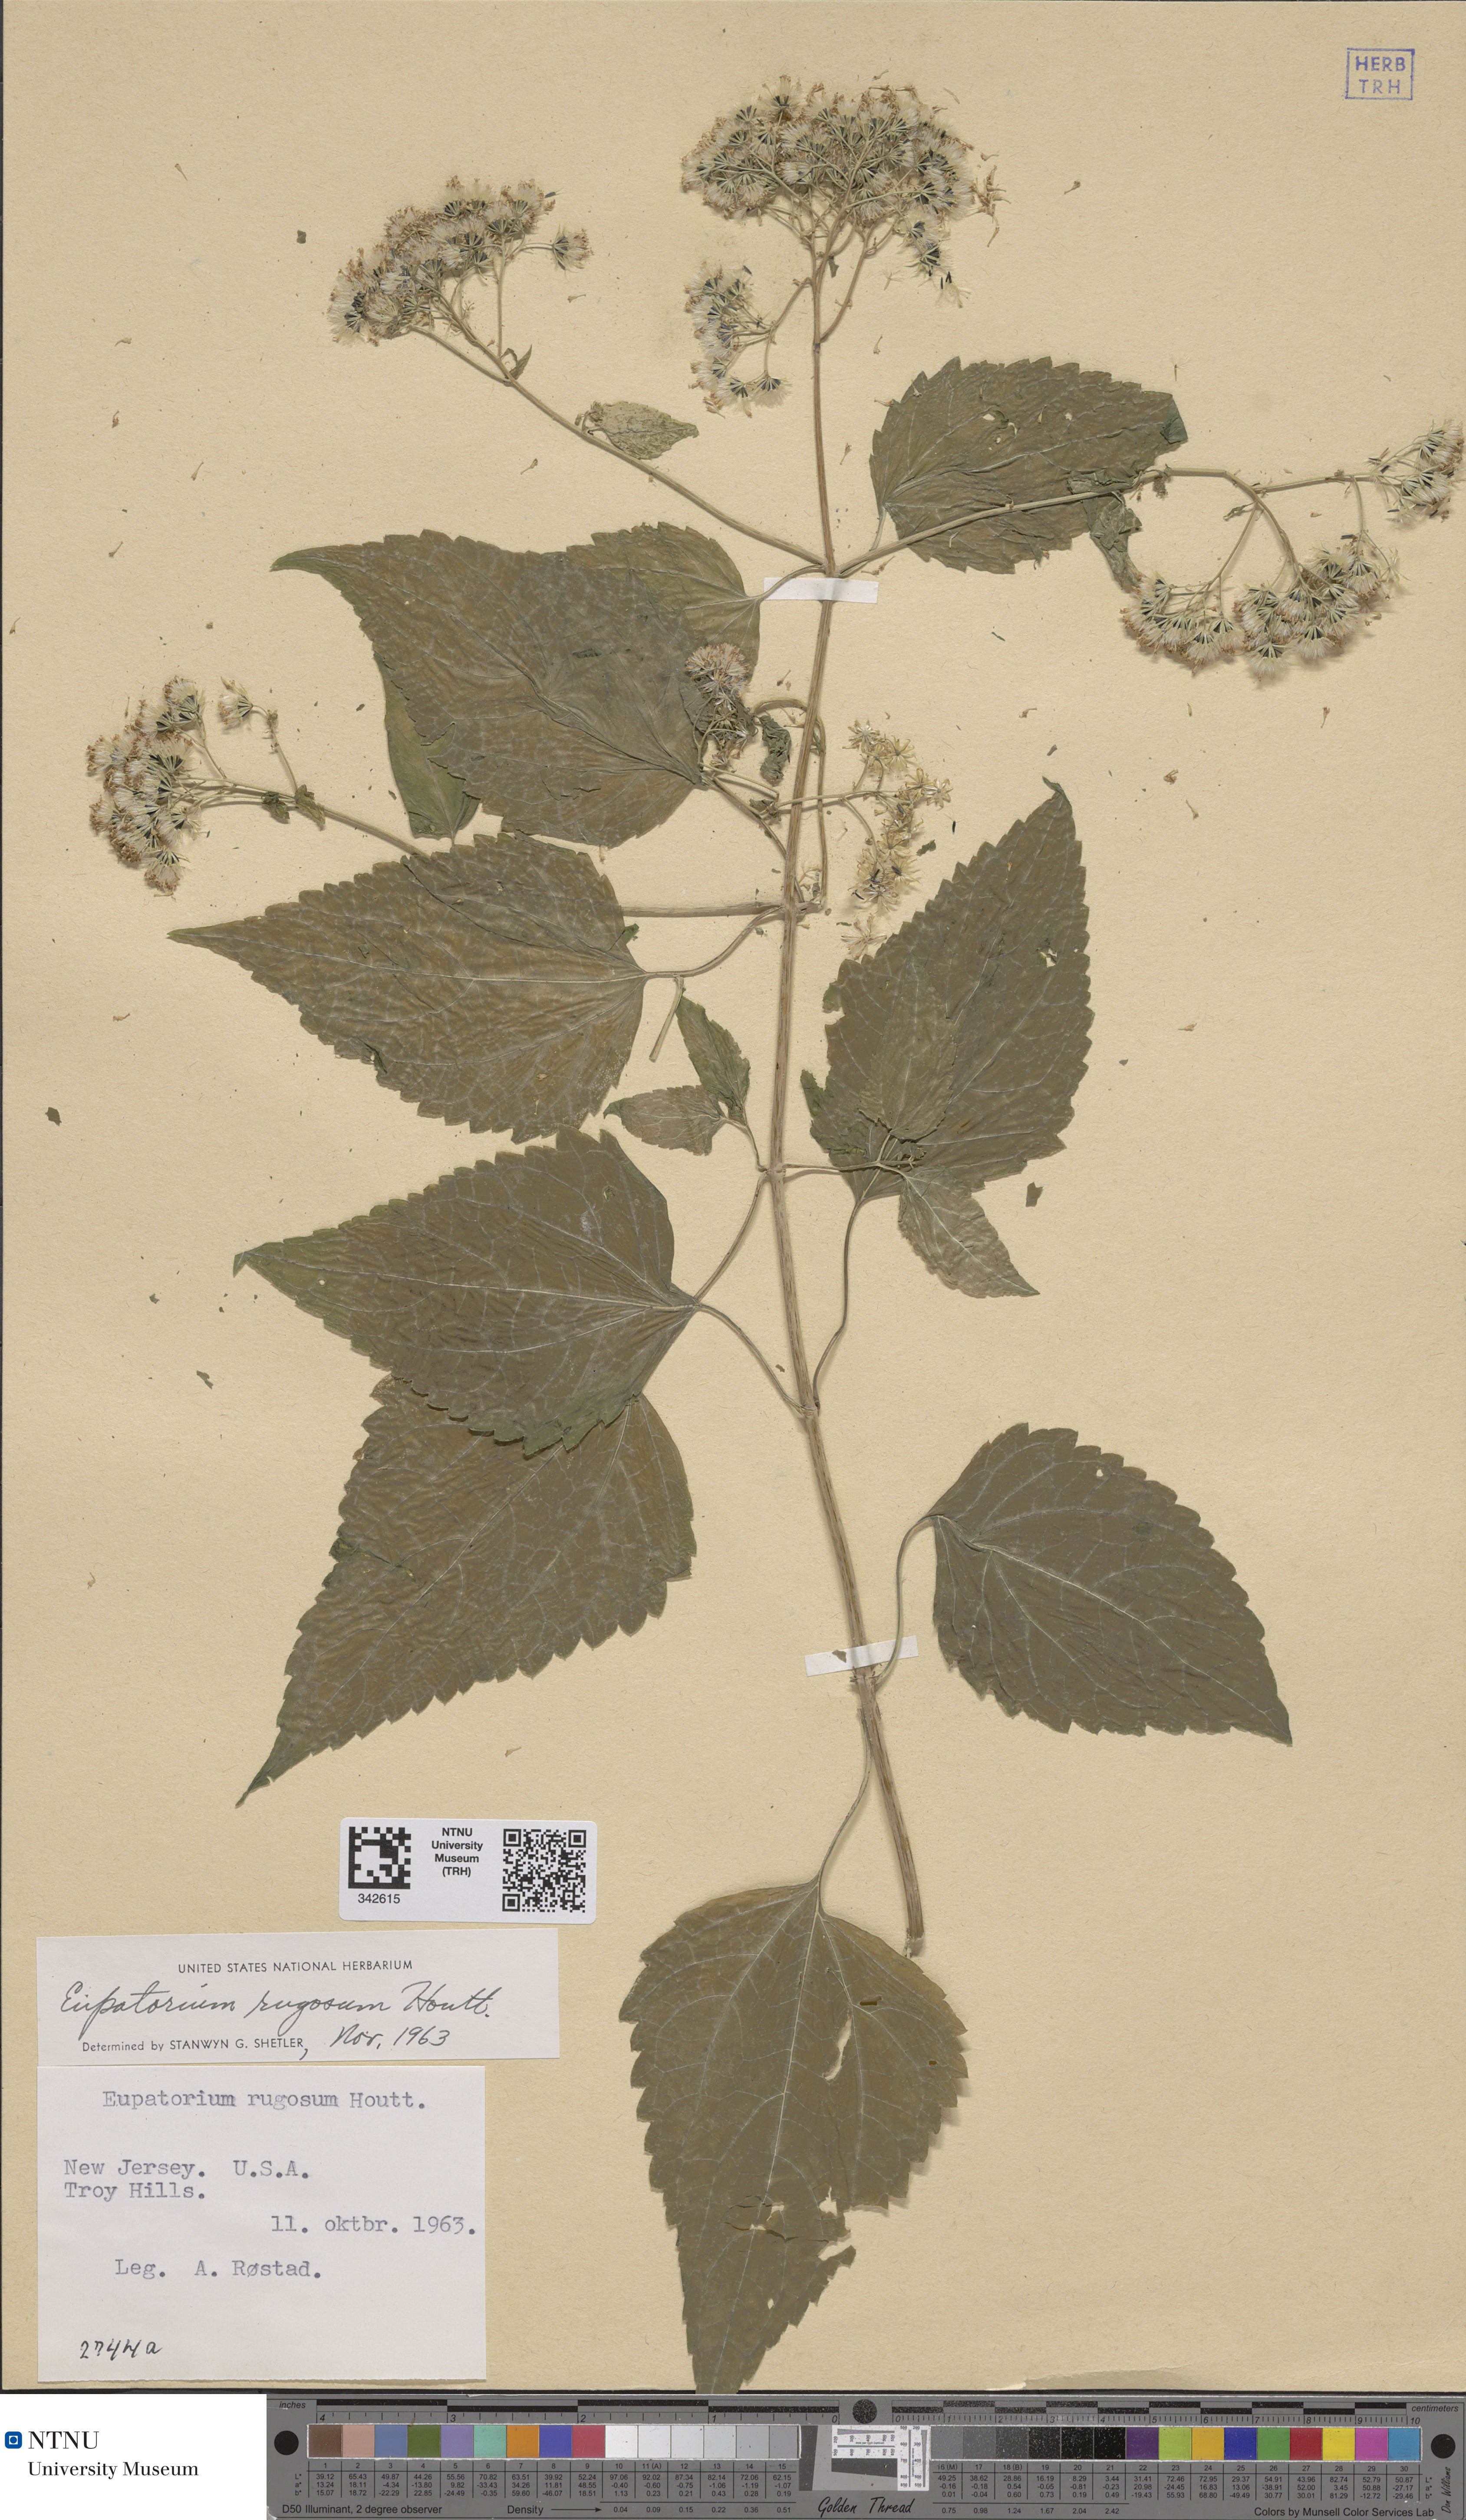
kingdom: Plantae
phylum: Tracheophyta
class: Magnoliopsida
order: Asterales
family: Asteraceae
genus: Ageratina
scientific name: Ageratina altissima
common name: White snakeroot
